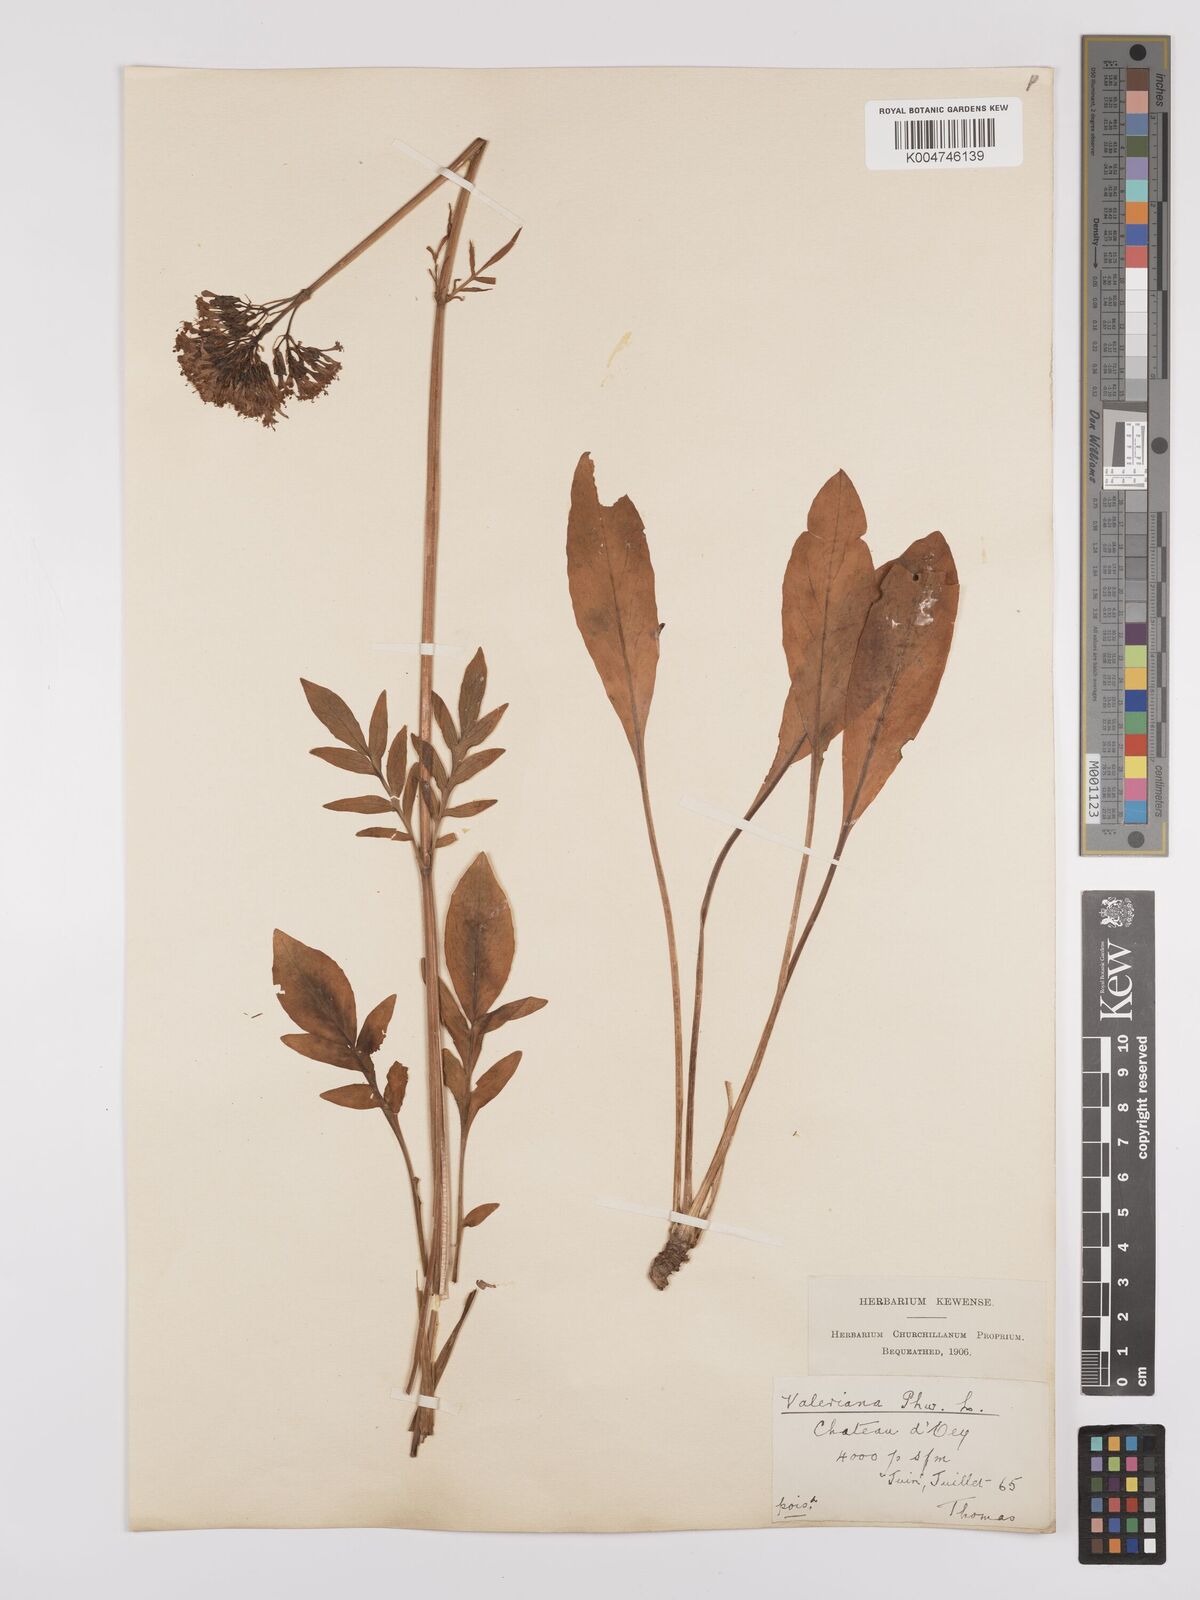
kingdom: Plantae
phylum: Tracheophyta
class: Magnoliopsida
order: Dipsacales
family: Caprifoliaceae
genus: Valeriana
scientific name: Valeriana phu
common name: Turkey valerian
